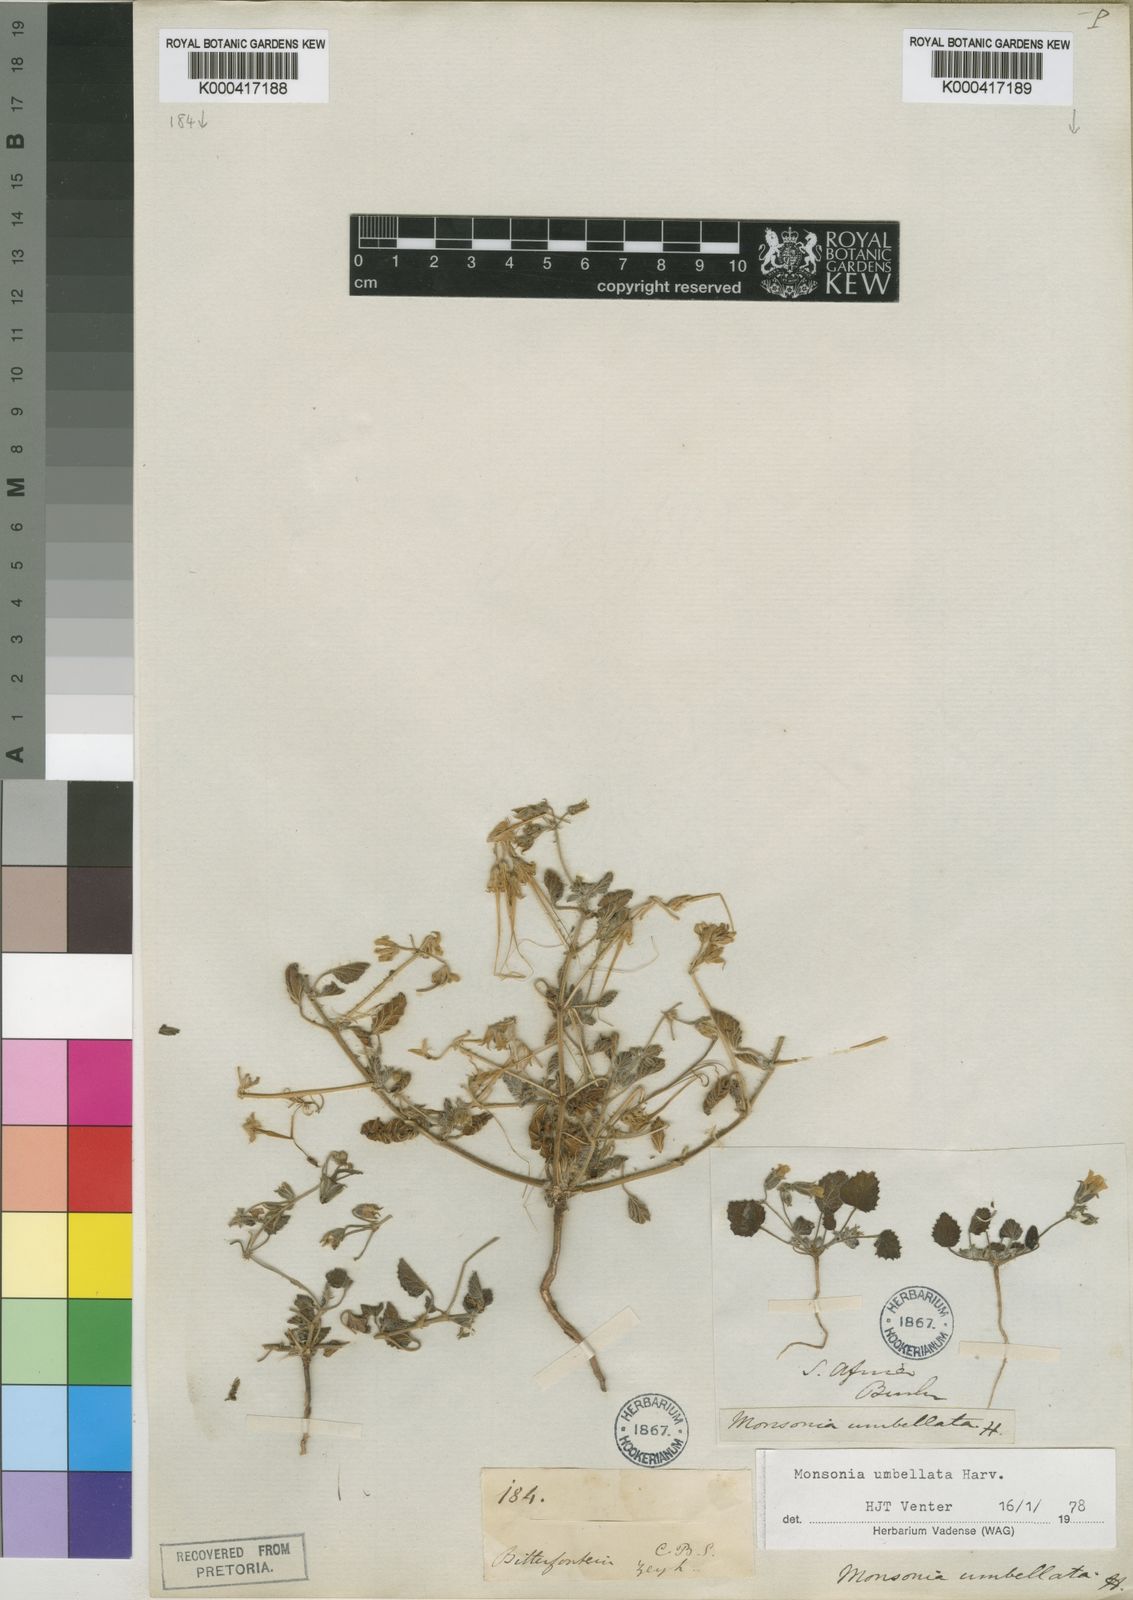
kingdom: Plantae
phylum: Tracheophyta
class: Magnoliopsida
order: Geraniales
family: Geraniaceae
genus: Monsonia
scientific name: Monsonia umbellata
